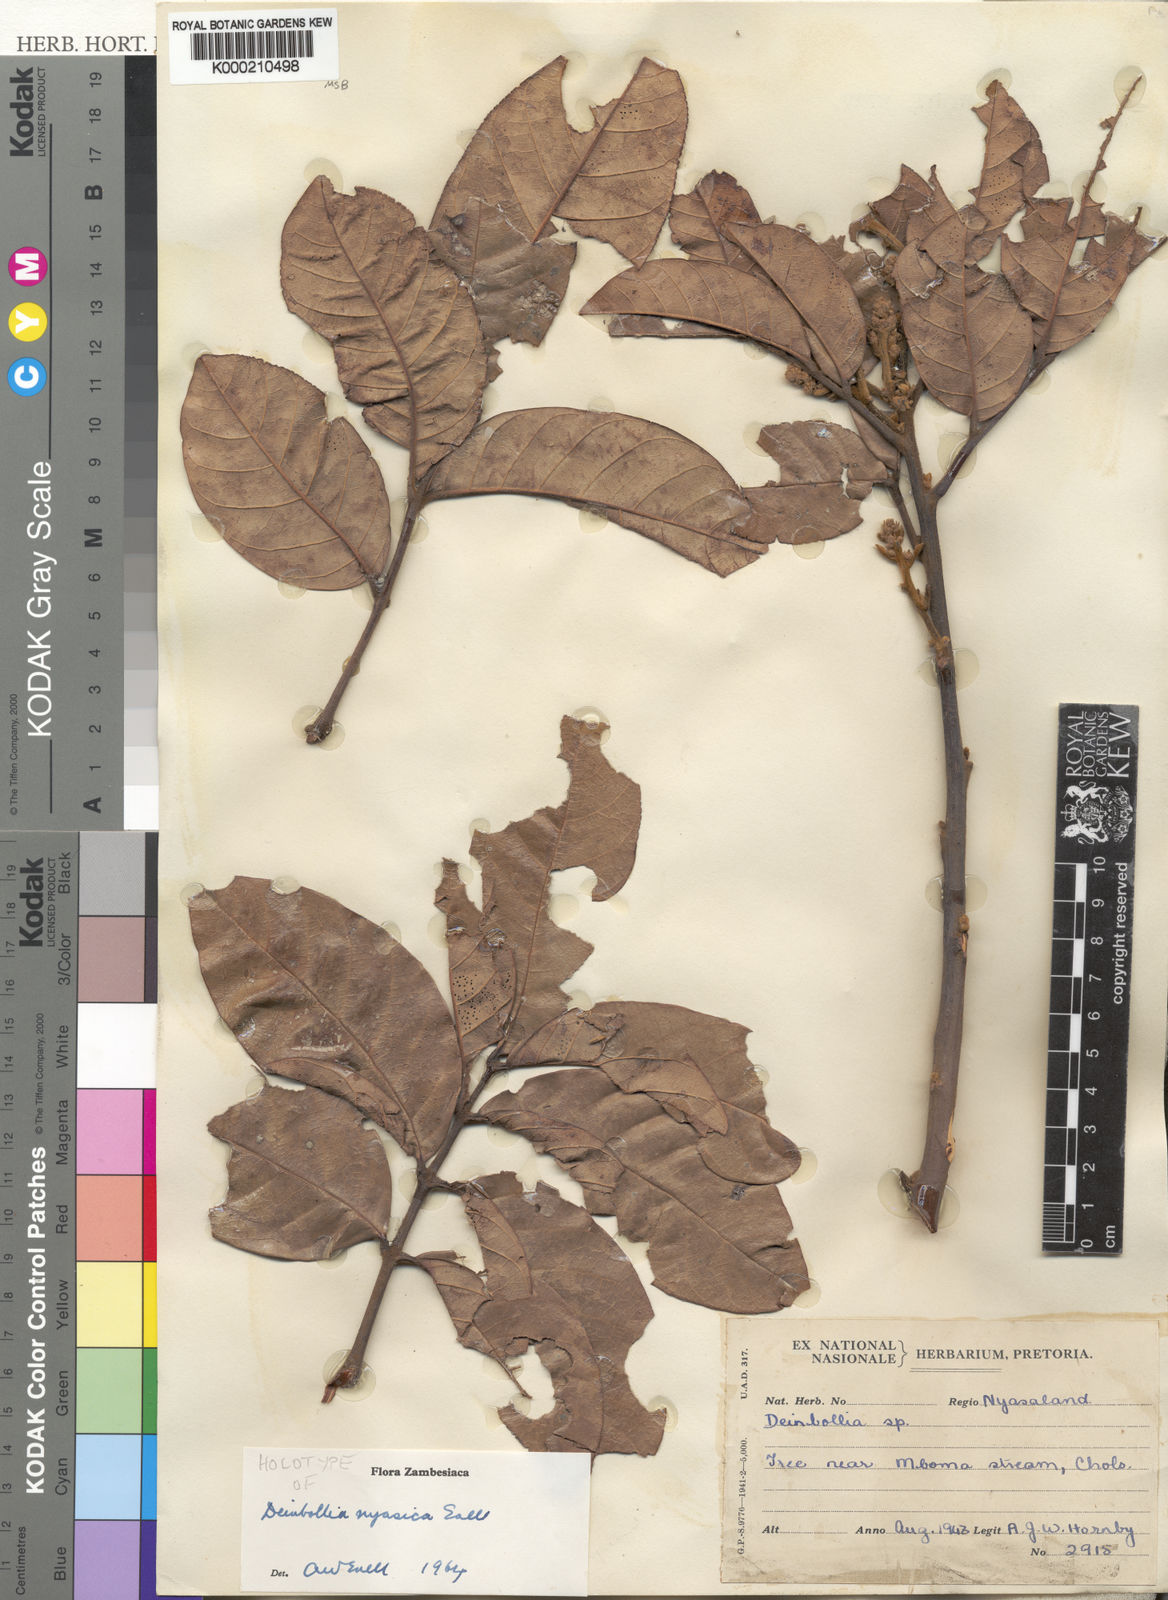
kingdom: Plantae
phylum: Tracheophyta
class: Magnoliopsida
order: Sapindales
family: Sapindaceae
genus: Deinbollia
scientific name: Deinbollia nyasica
